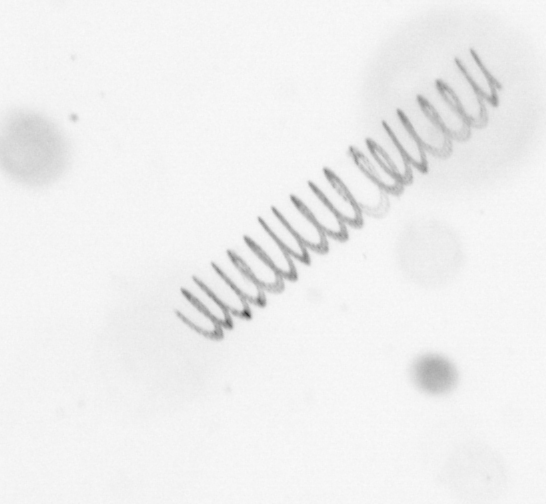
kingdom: Chromista
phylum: Ochrophyta
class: Bacillariophyceae
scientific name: Bacillariophyceae
